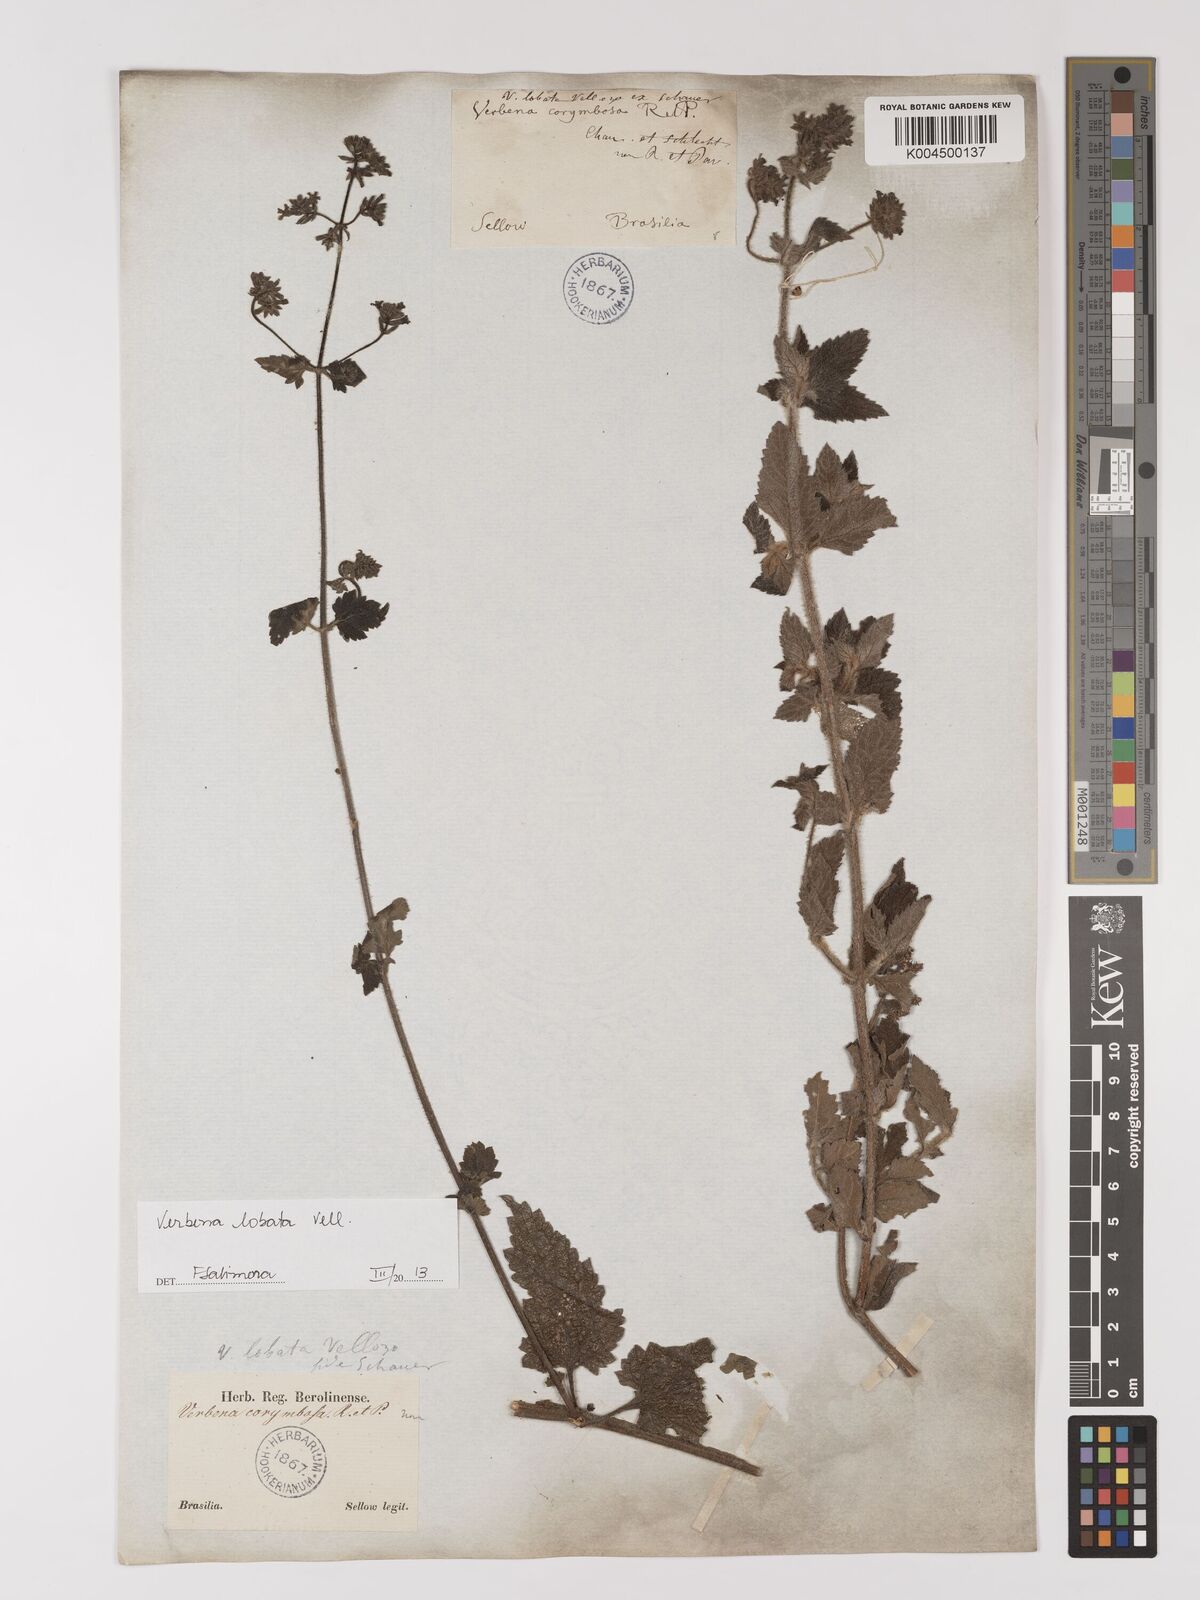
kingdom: Plantae
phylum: Tracheophyta
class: Magnoliopsida
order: Lamiales
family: Verbenaceae
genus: Verbena
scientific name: Verbena lobata
